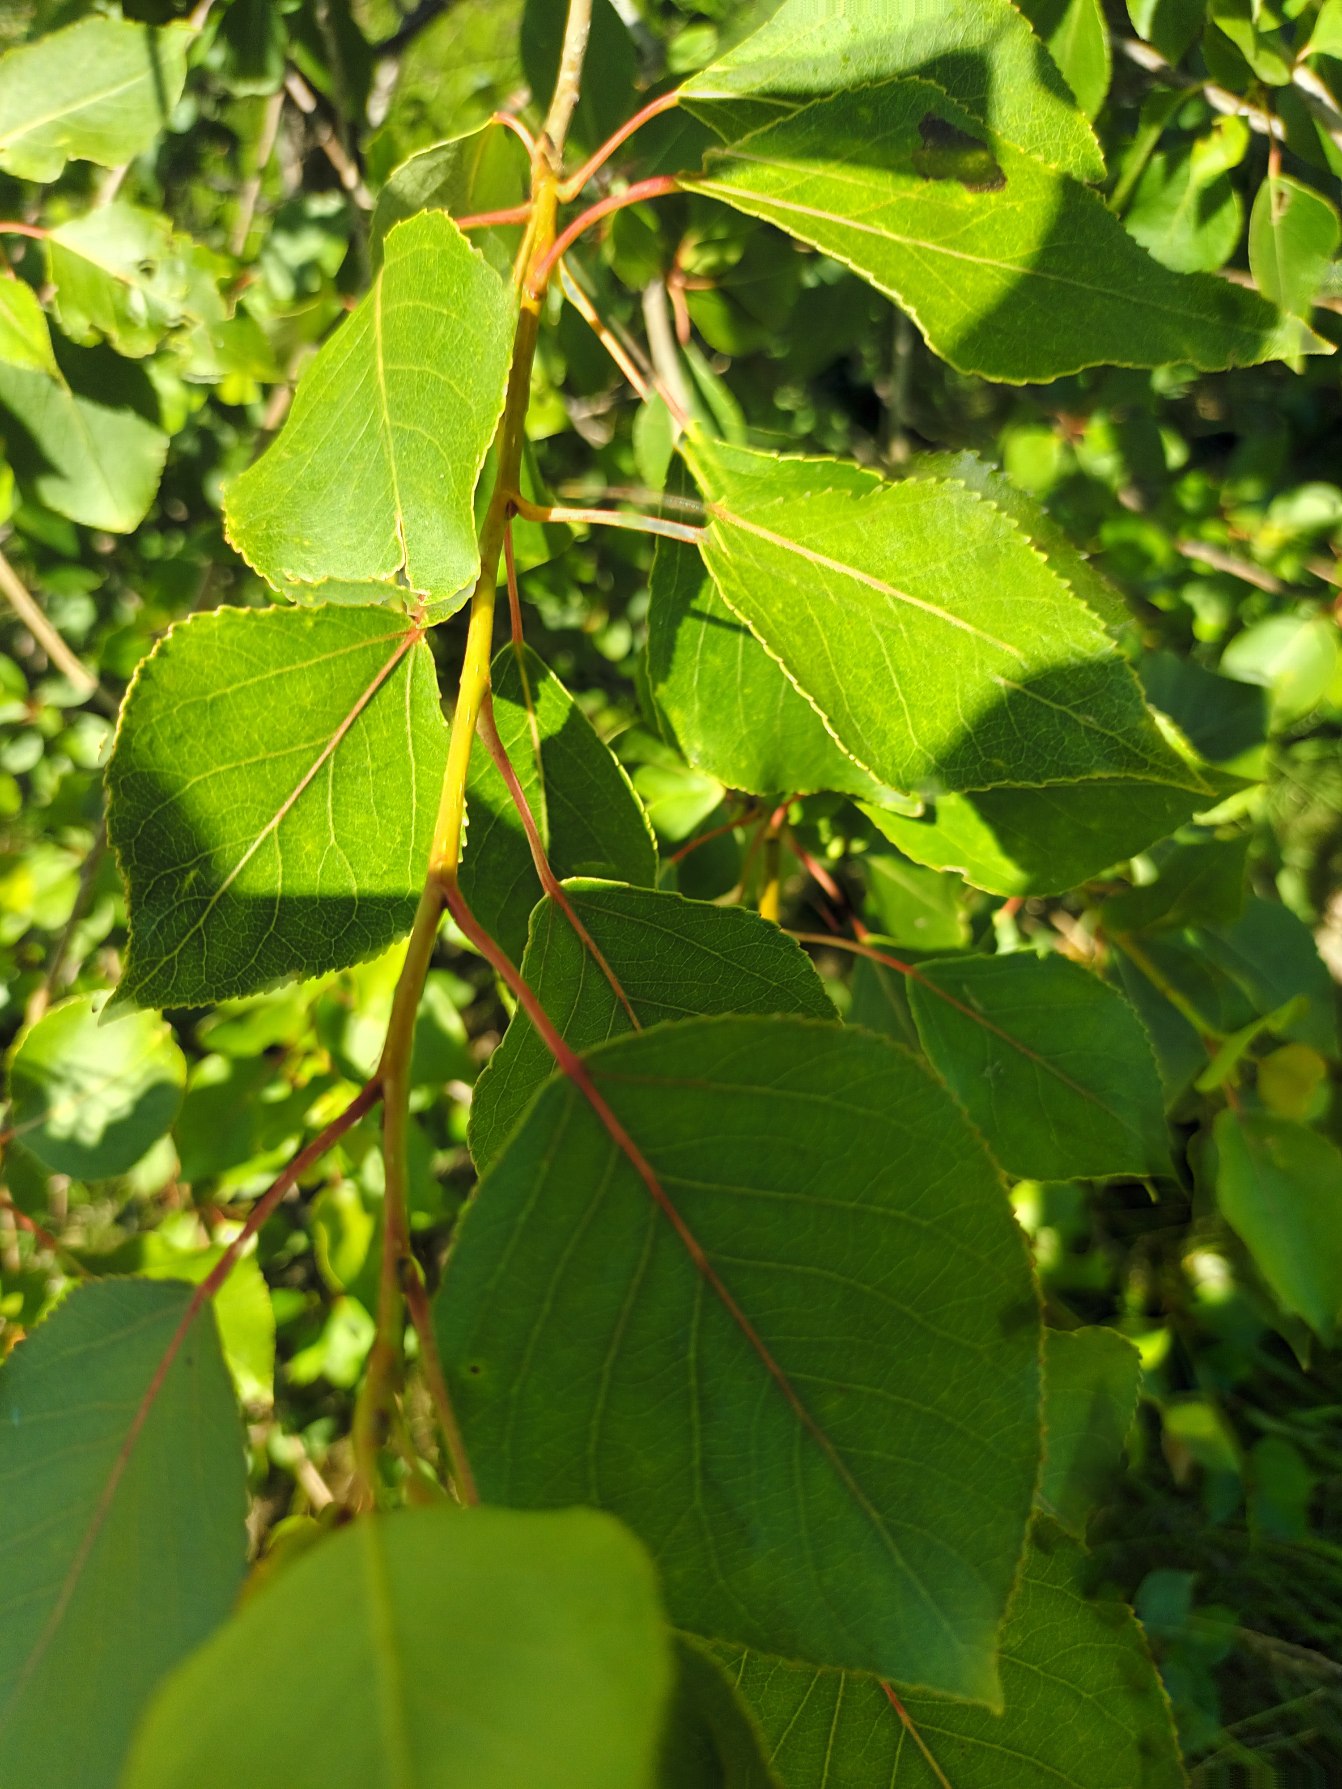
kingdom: Plantae
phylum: Tracheophyta
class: Magnoliopsida
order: Malpighiales
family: Salicaceae
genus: Populus
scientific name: Populus berolinensis
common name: Berliner-poppel
